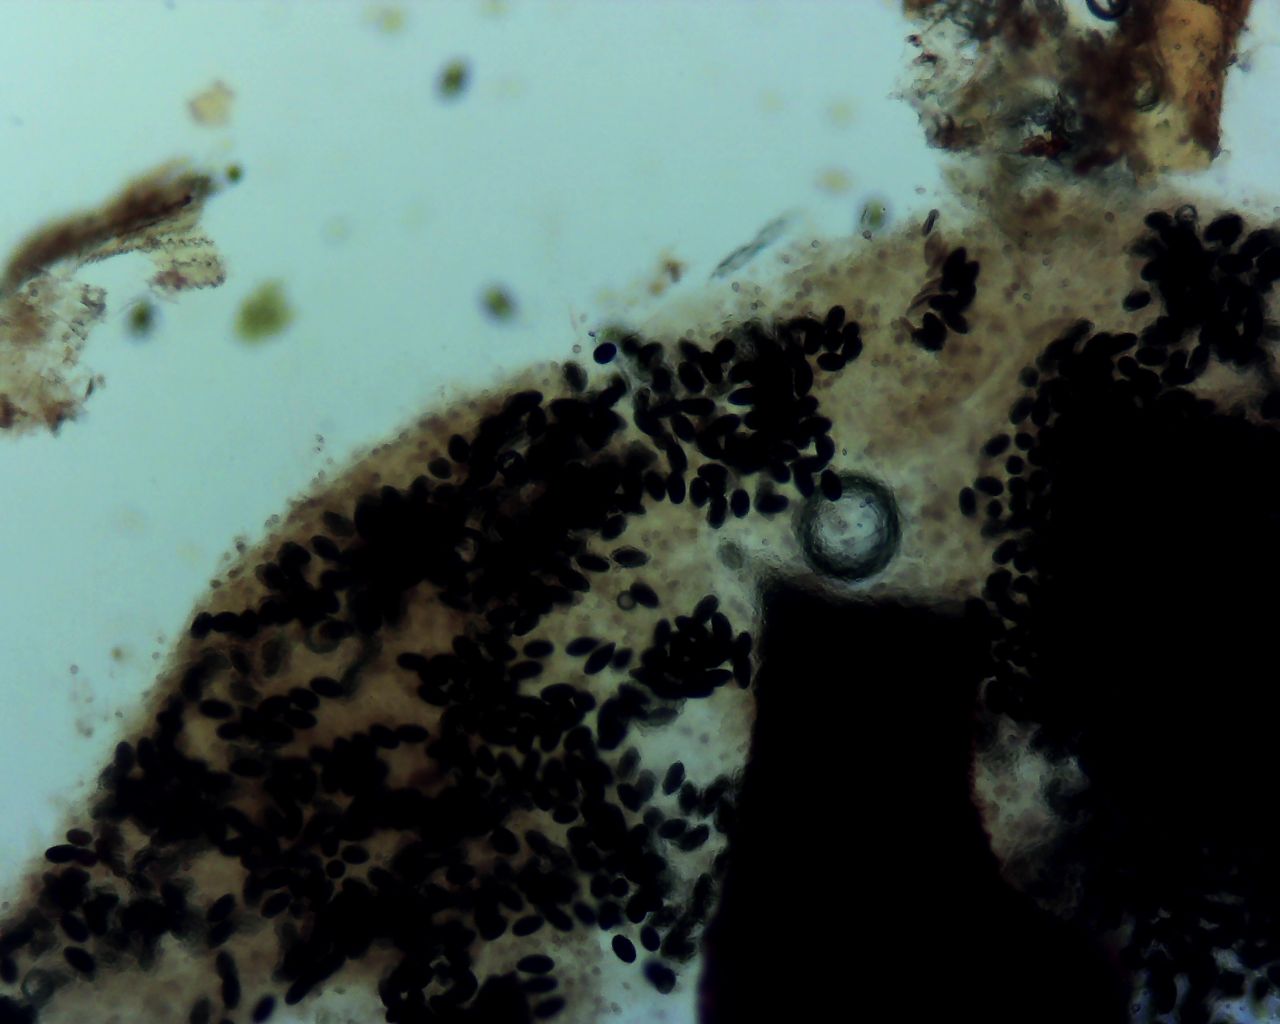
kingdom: Fungi
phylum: Ascomycota
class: Sordariomycetes
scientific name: Sordariomycetes
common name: kernesvampklassen
